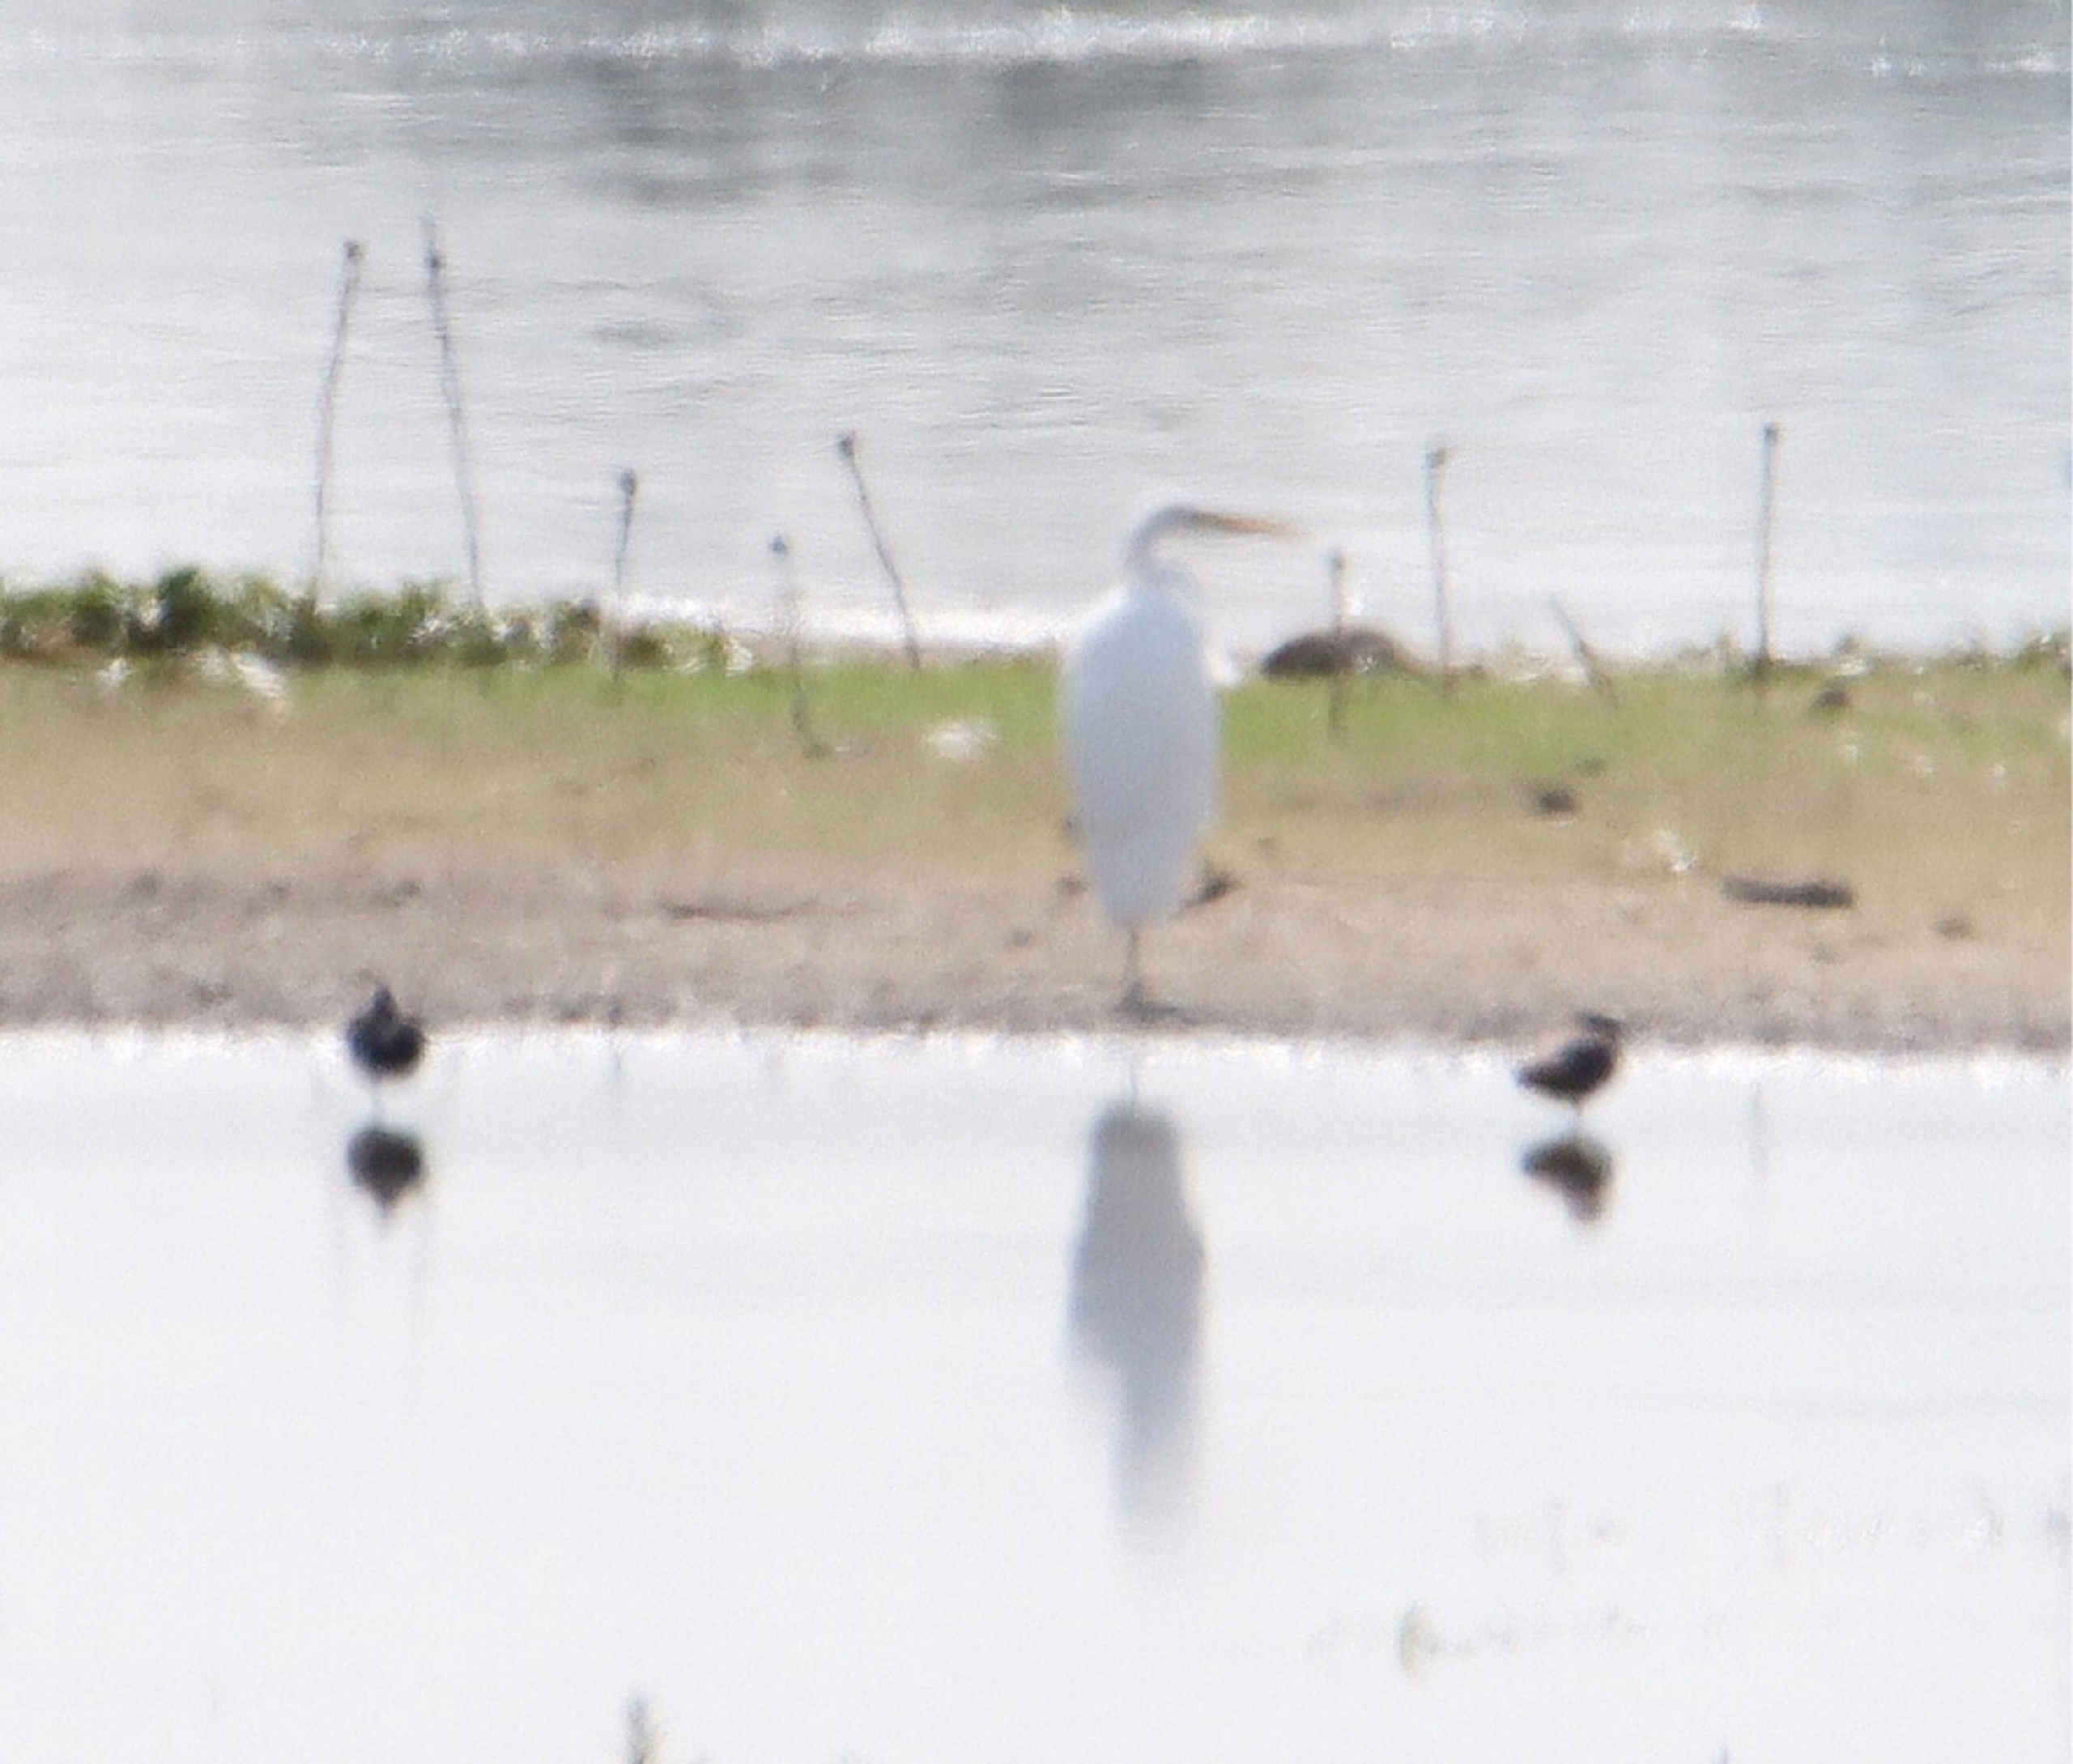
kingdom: Animalia
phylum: Chordata
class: Aves
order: Pelecaniformes
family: Ardeidae
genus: Ardea
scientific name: Ardea alba
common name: Sølvhejre
